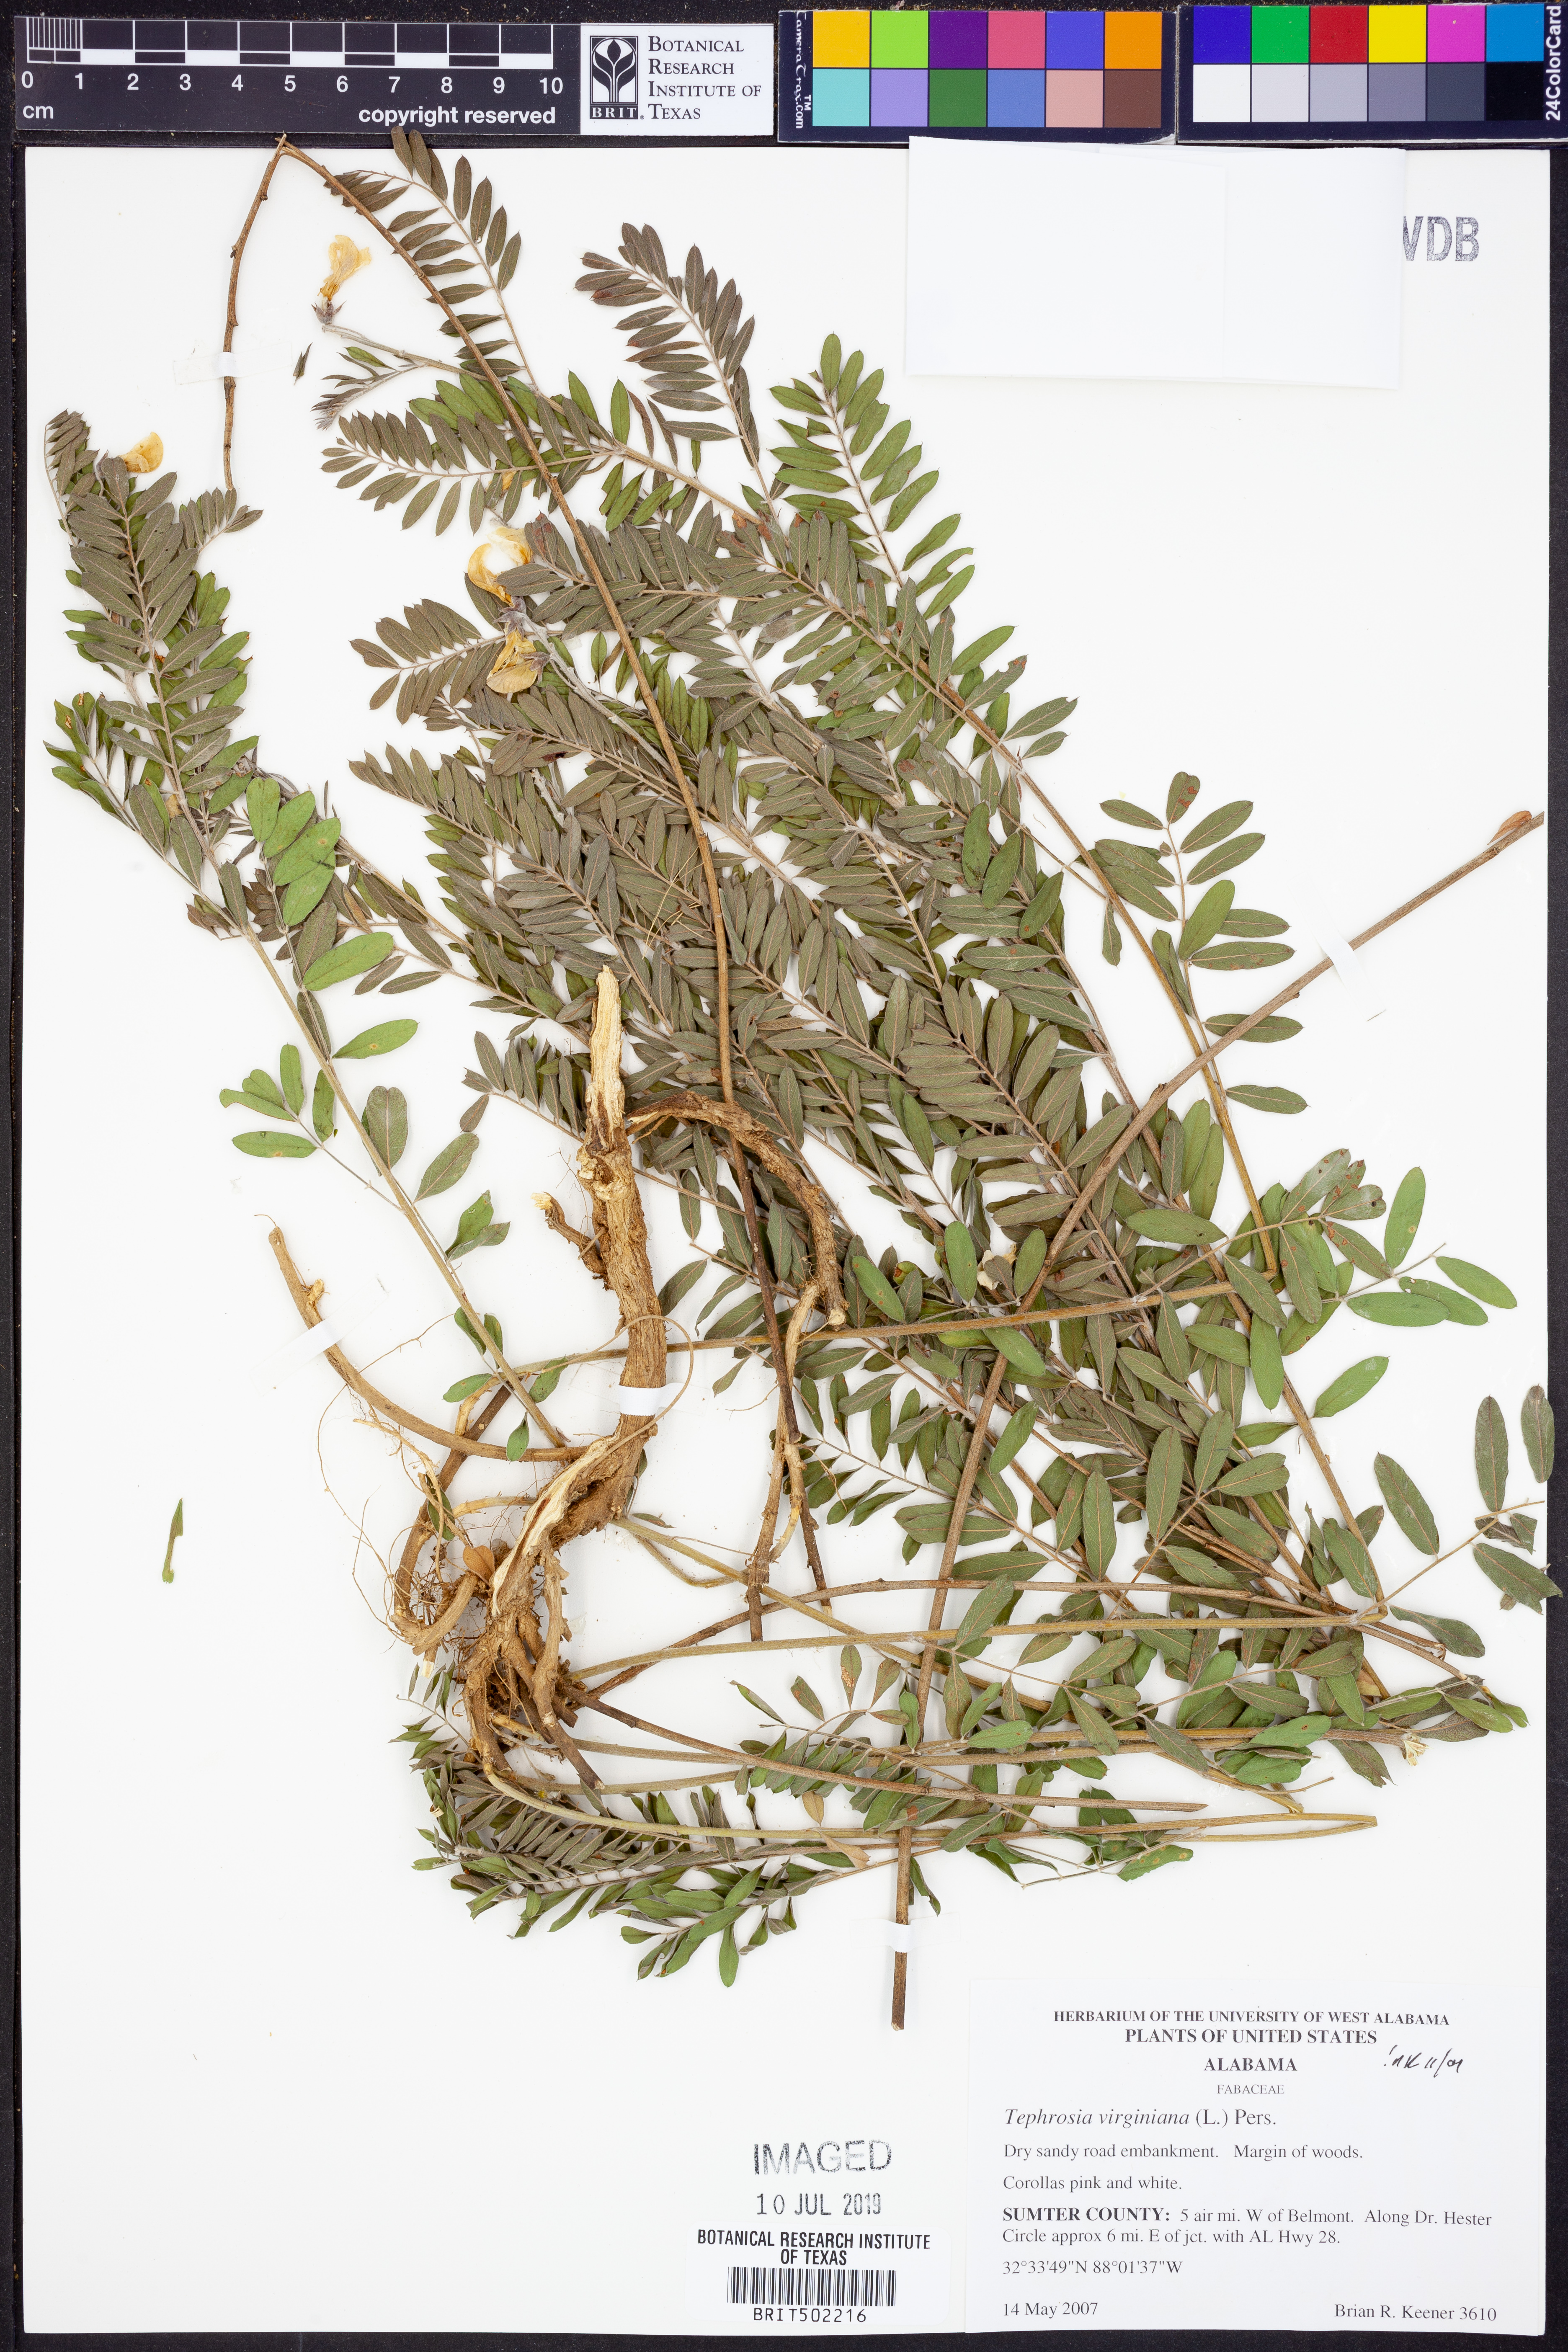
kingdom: Plantae
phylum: Tracheophyta
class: Magnoliopsida
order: Fabales
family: Fabaceae
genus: Tephrosia
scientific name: Tephrosia virginiana
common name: Rabbit-pea
